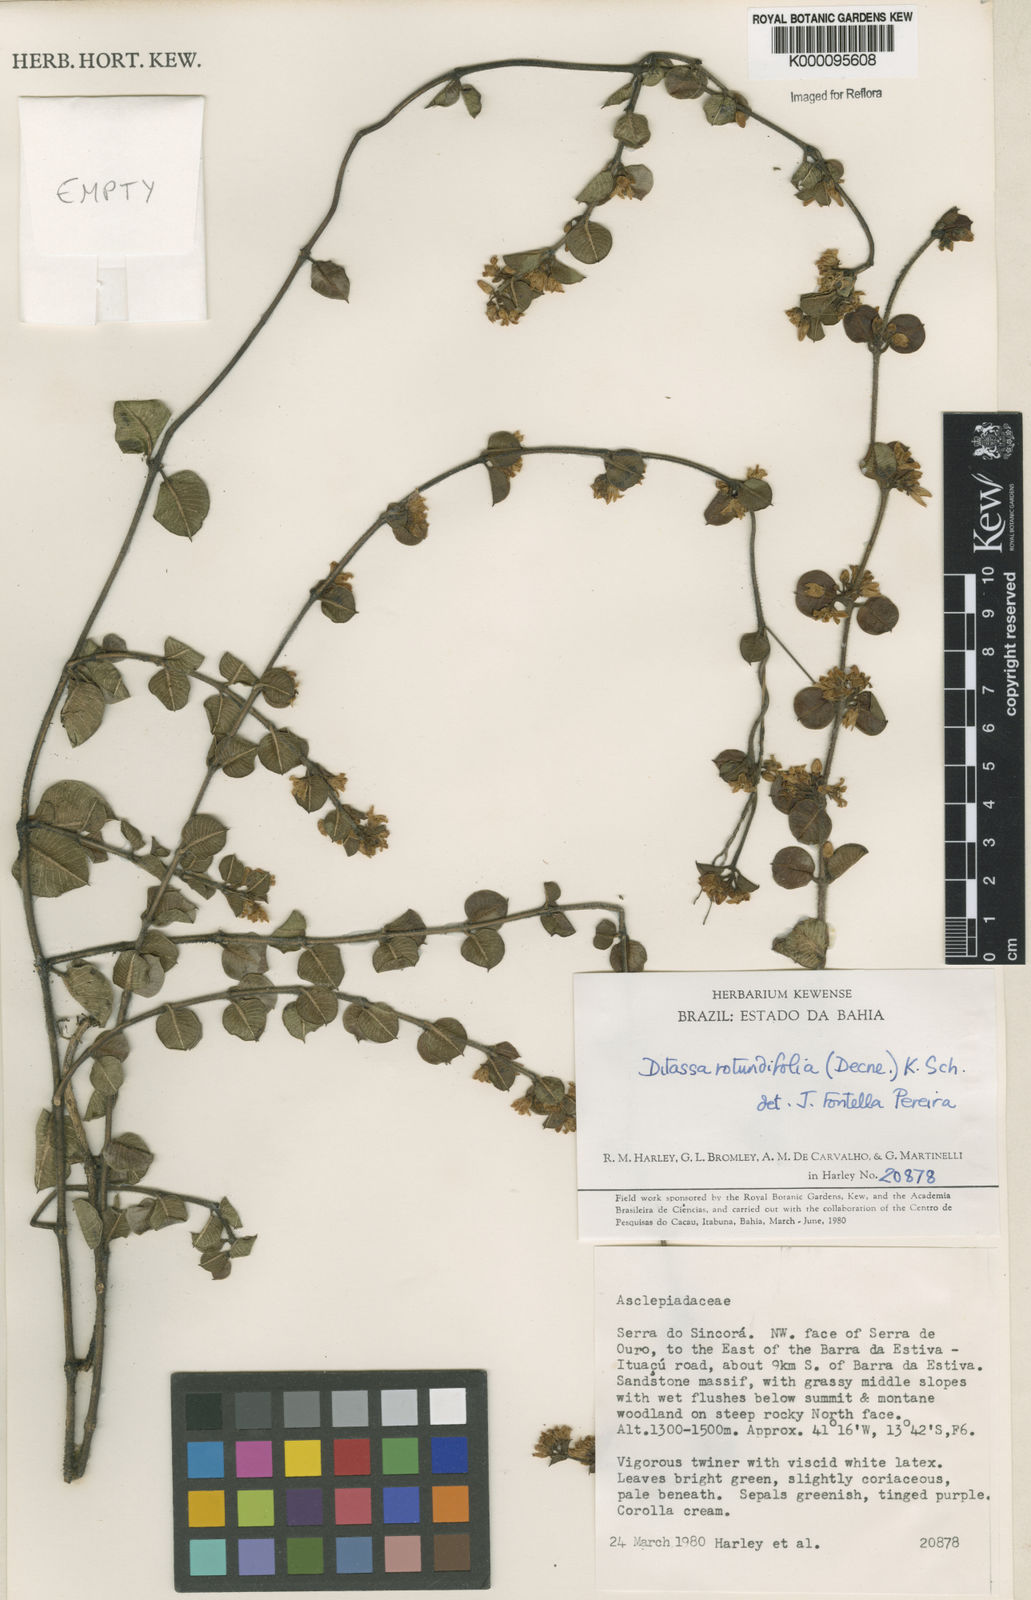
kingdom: Plantae
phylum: Tracheophyta
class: Magnoliopsida
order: Gentianales
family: Apocynaceae
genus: Ditassa
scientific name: Ditassa
